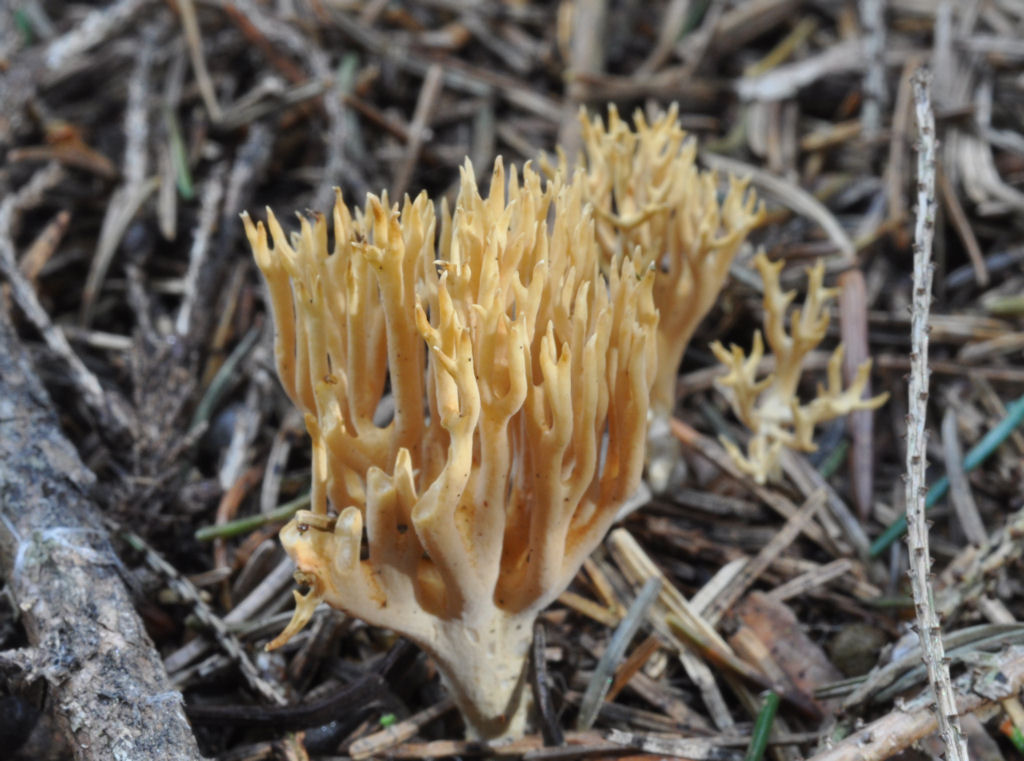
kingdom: Fungi
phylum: Basidiomycota
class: Agaricomycetes
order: Gomphales
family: Gomphaceae
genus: Phaeoclavulina
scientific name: Phaeoclavulina eumorpha
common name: gran-koralsvamp
